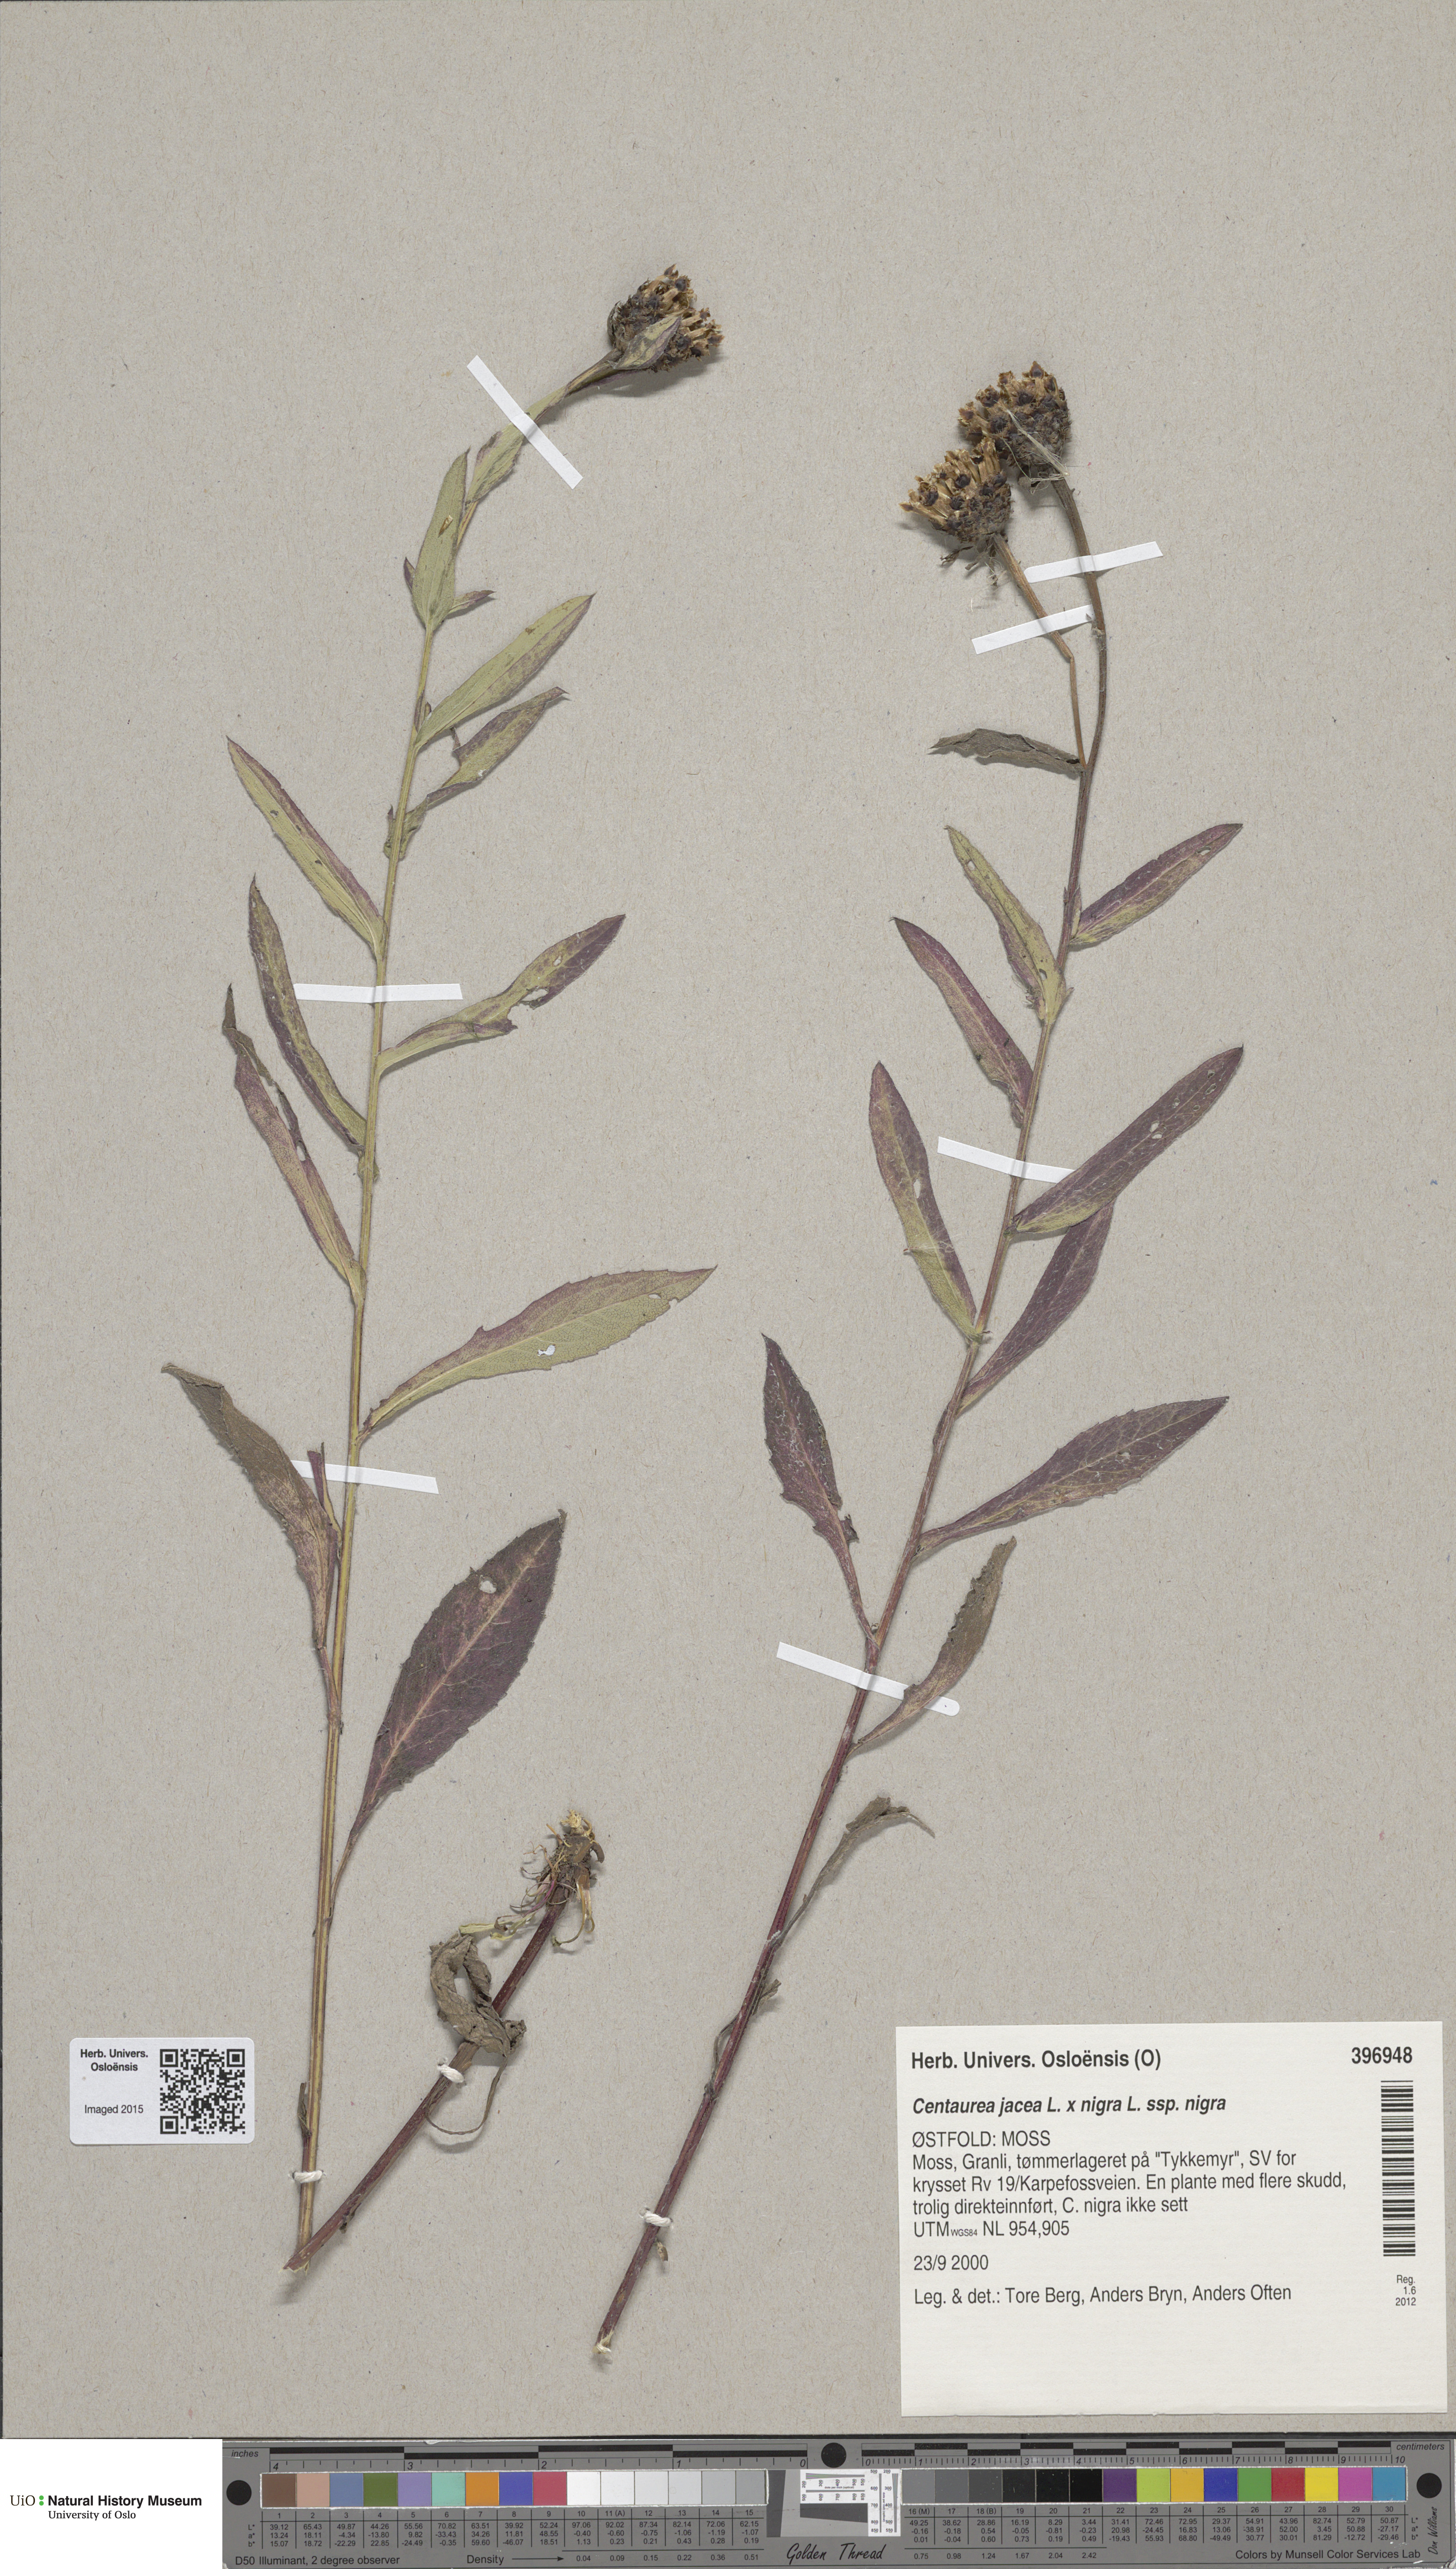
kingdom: Plantae
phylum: Tracheophyta
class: Magnoliopsida
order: Asterales
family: Asteraceae
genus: Centaurea
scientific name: Centaurea
